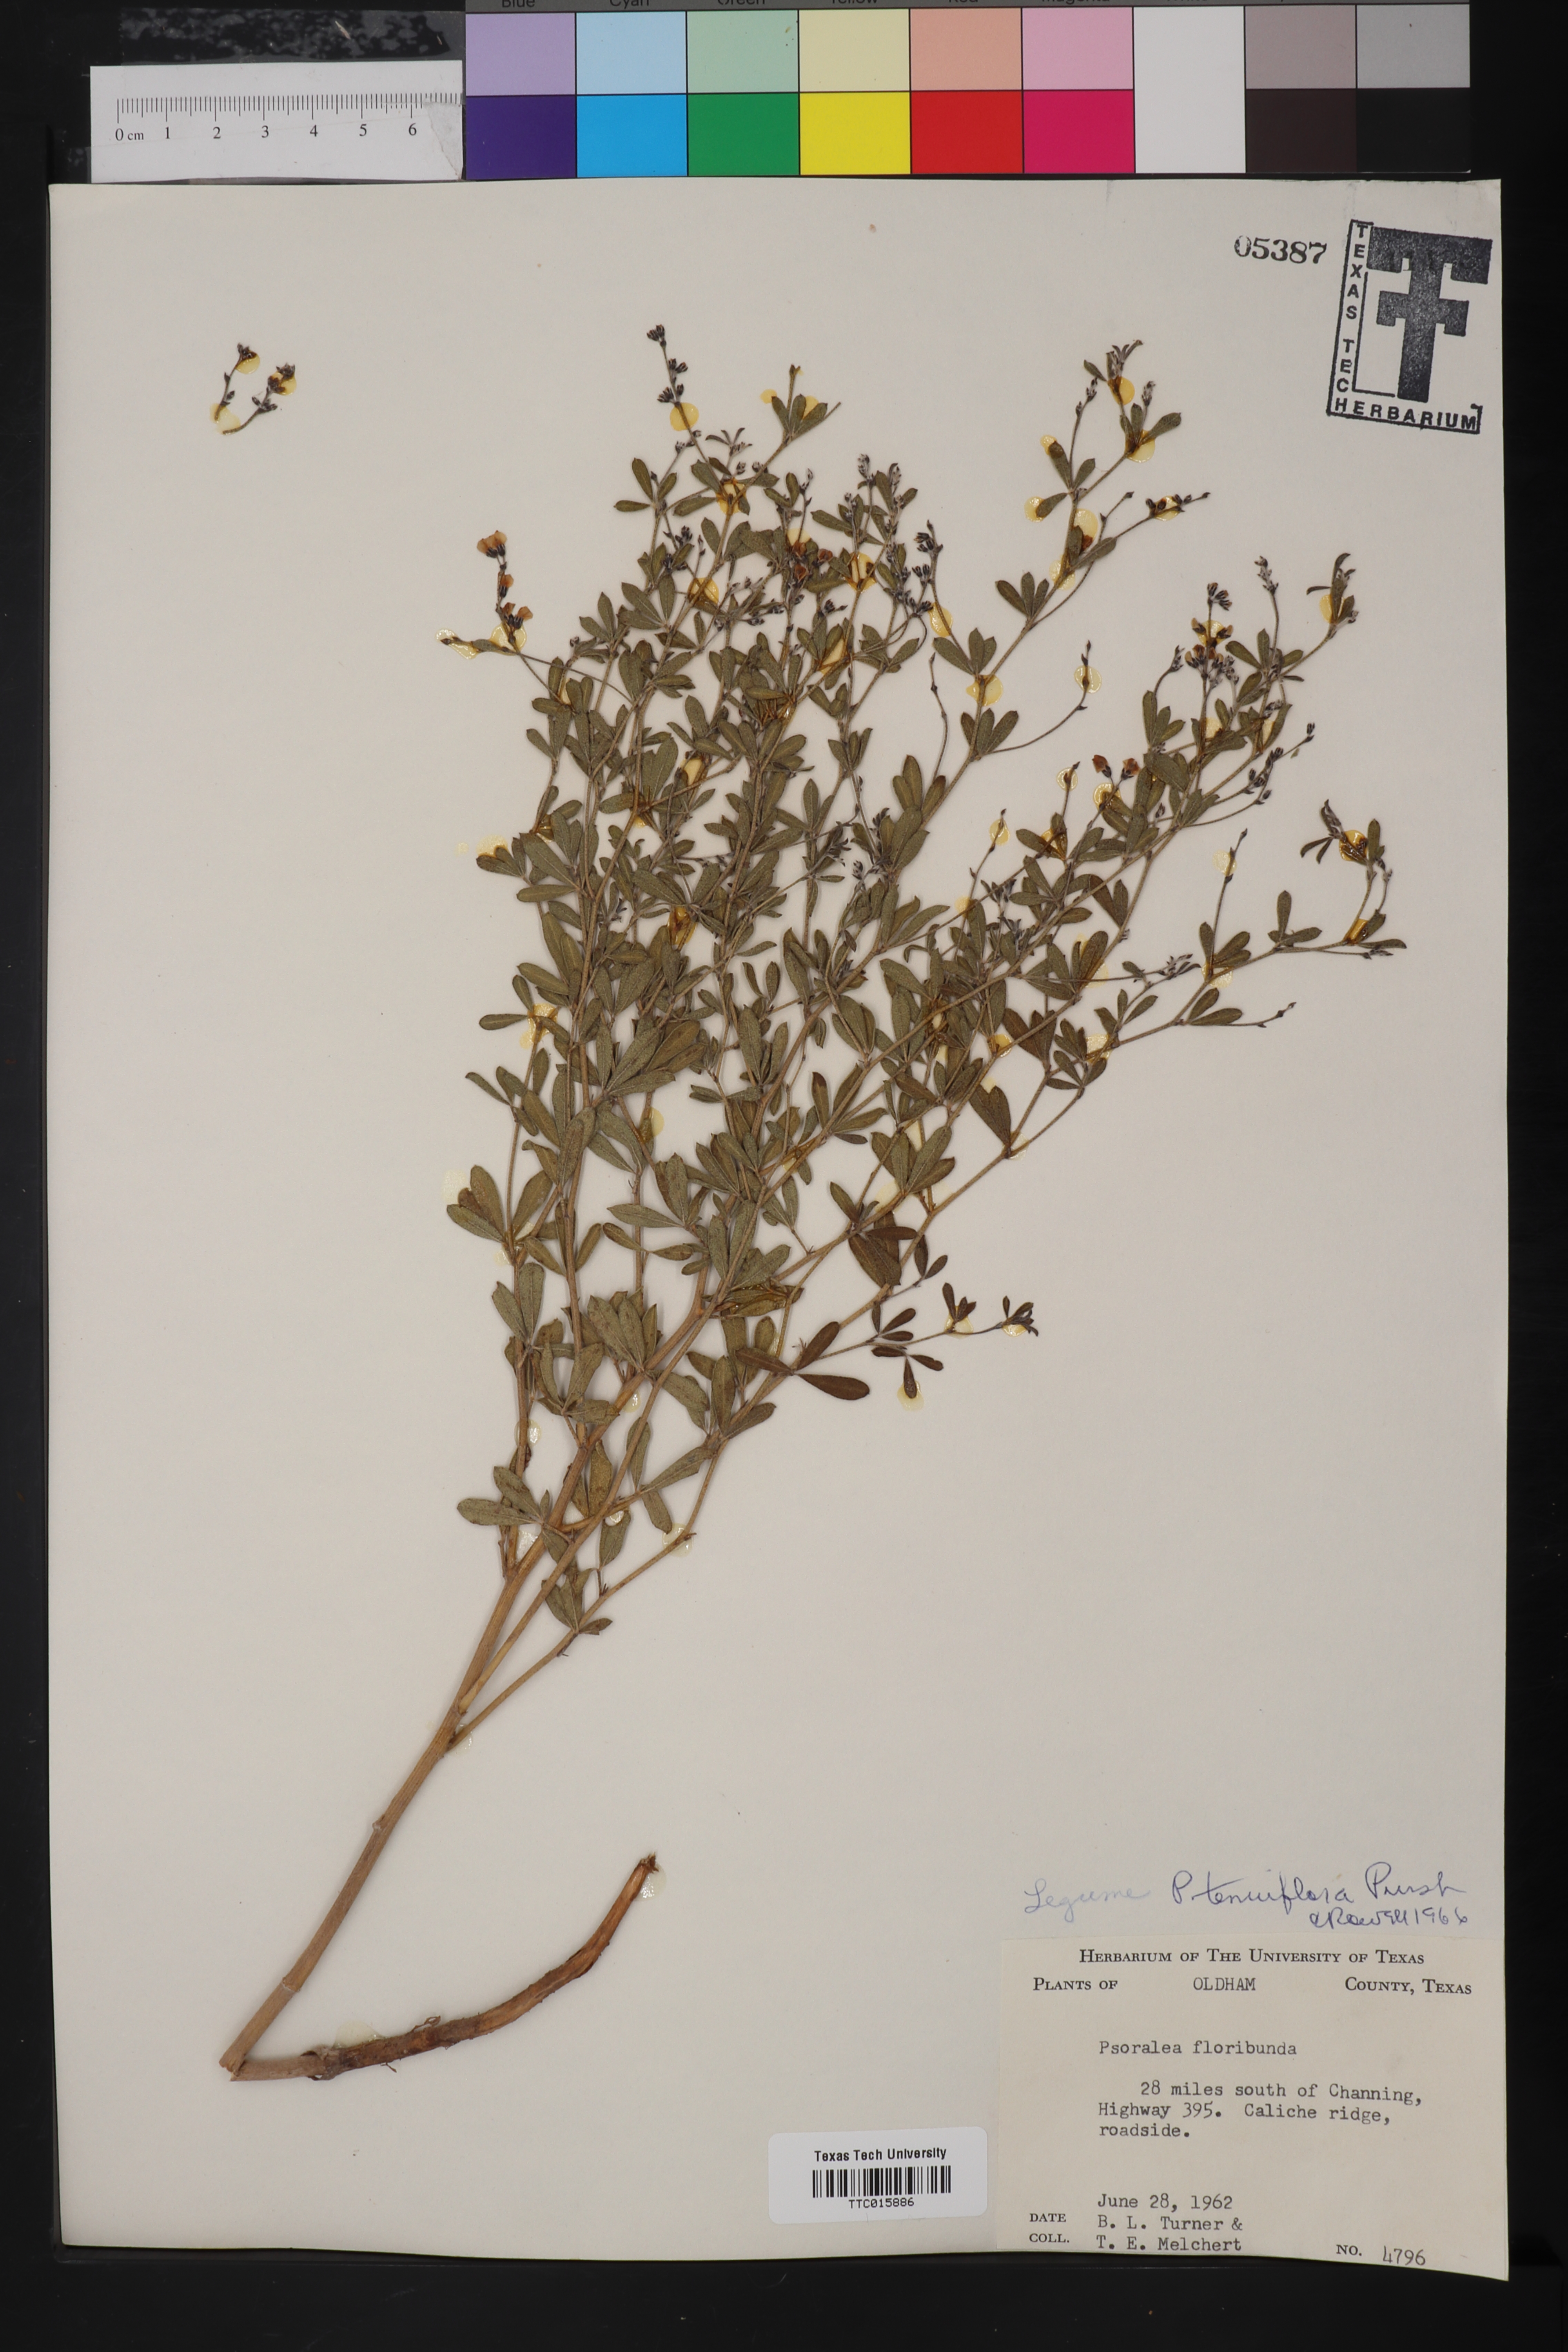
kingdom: Plantae
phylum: Tracheophyta
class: Magnoliopsida
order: Fabales
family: Fabaceae
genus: Pediomelum
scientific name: Pediomelum tenuiflorum
